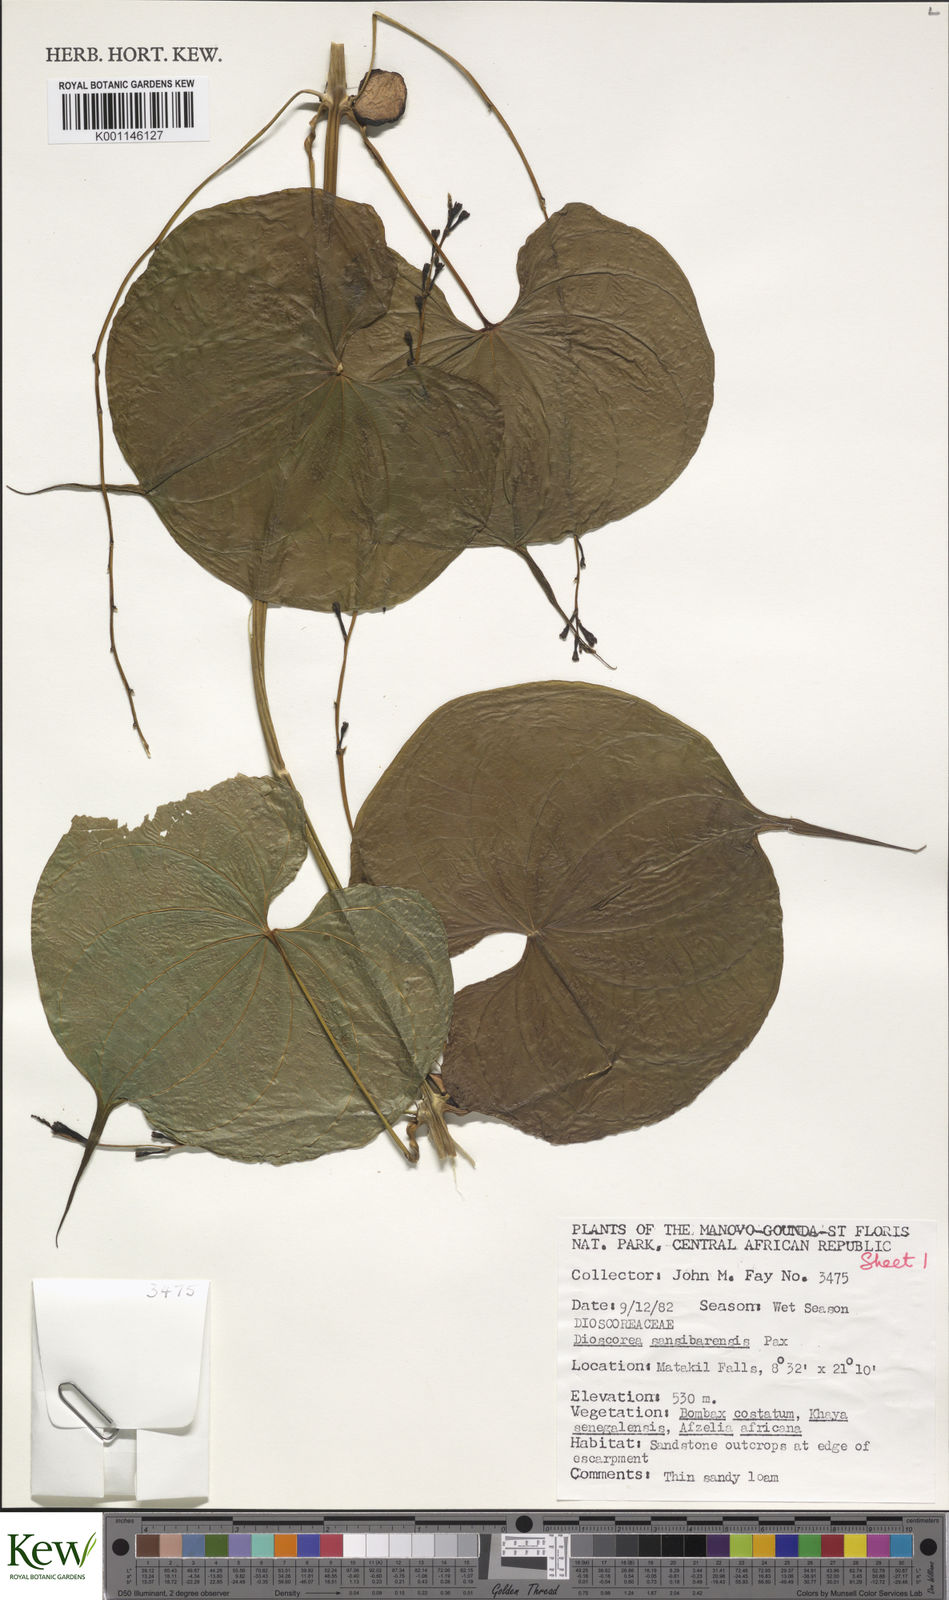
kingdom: Plantae
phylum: Tracheophyta
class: Liliopsida
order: Dioscoreales
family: Dioscoreaceae
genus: Dioscorea
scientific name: Dioscorea sansibarensis
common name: Zanzibar yam
